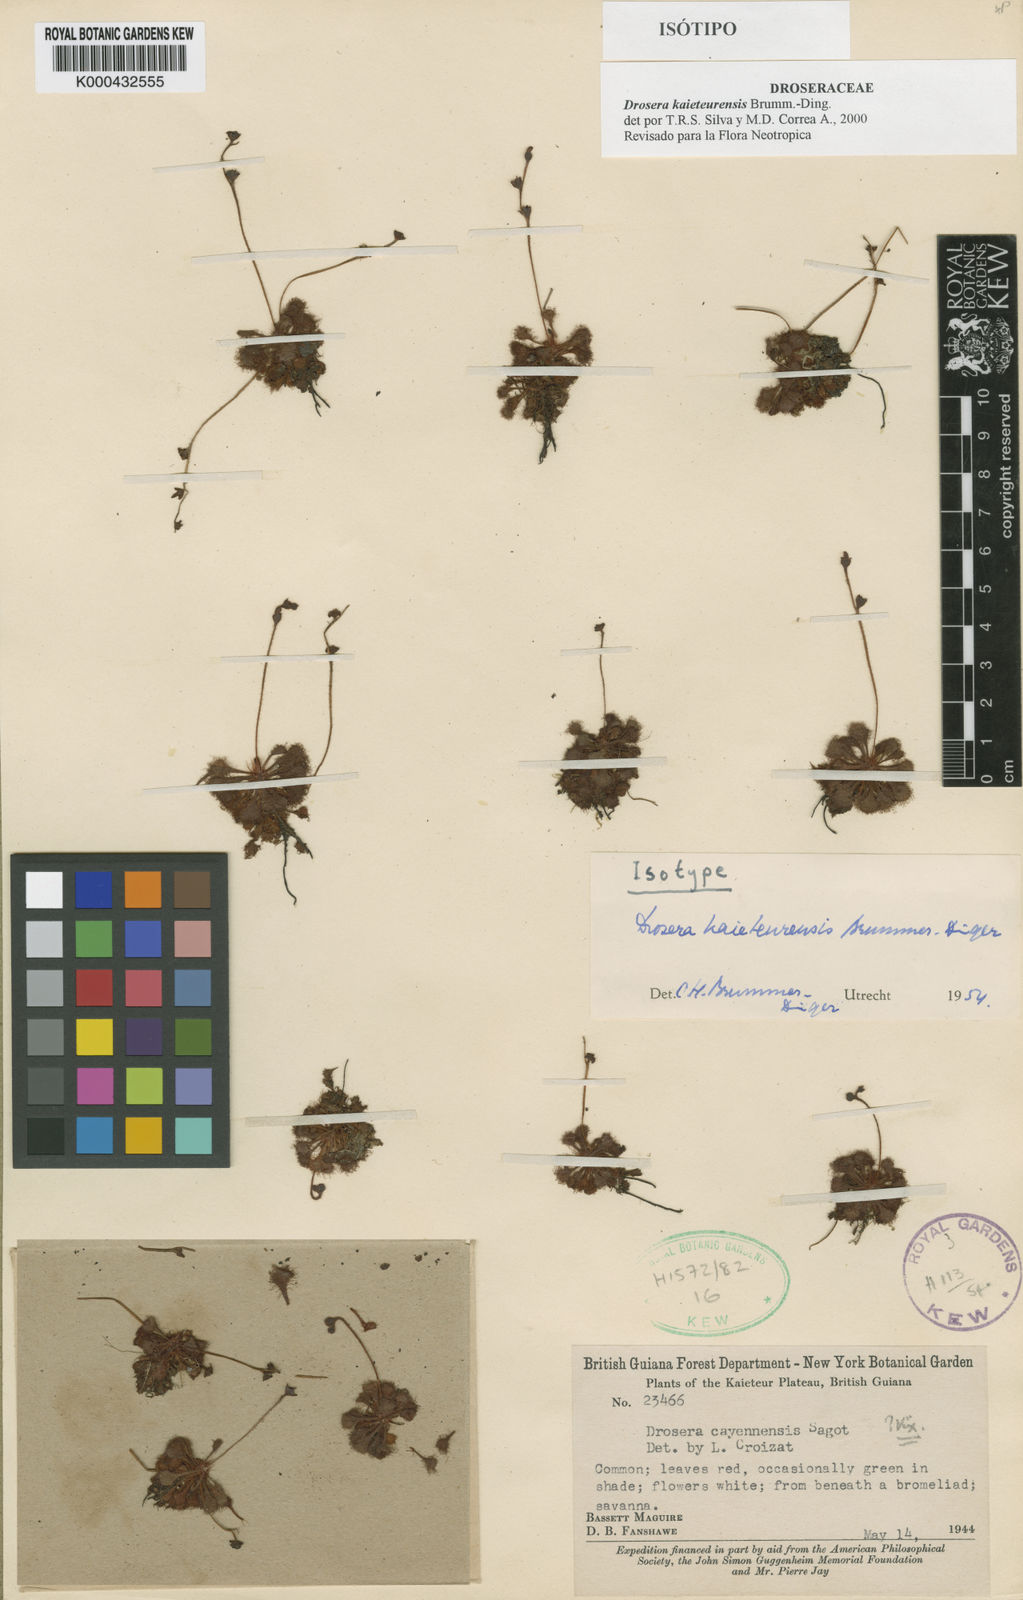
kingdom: Plantae
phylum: Tracheophyta
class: Magnoliopsida
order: Caryophyllales
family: Droseraceae
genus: Drosera
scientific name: Drosera kaieteurensis
